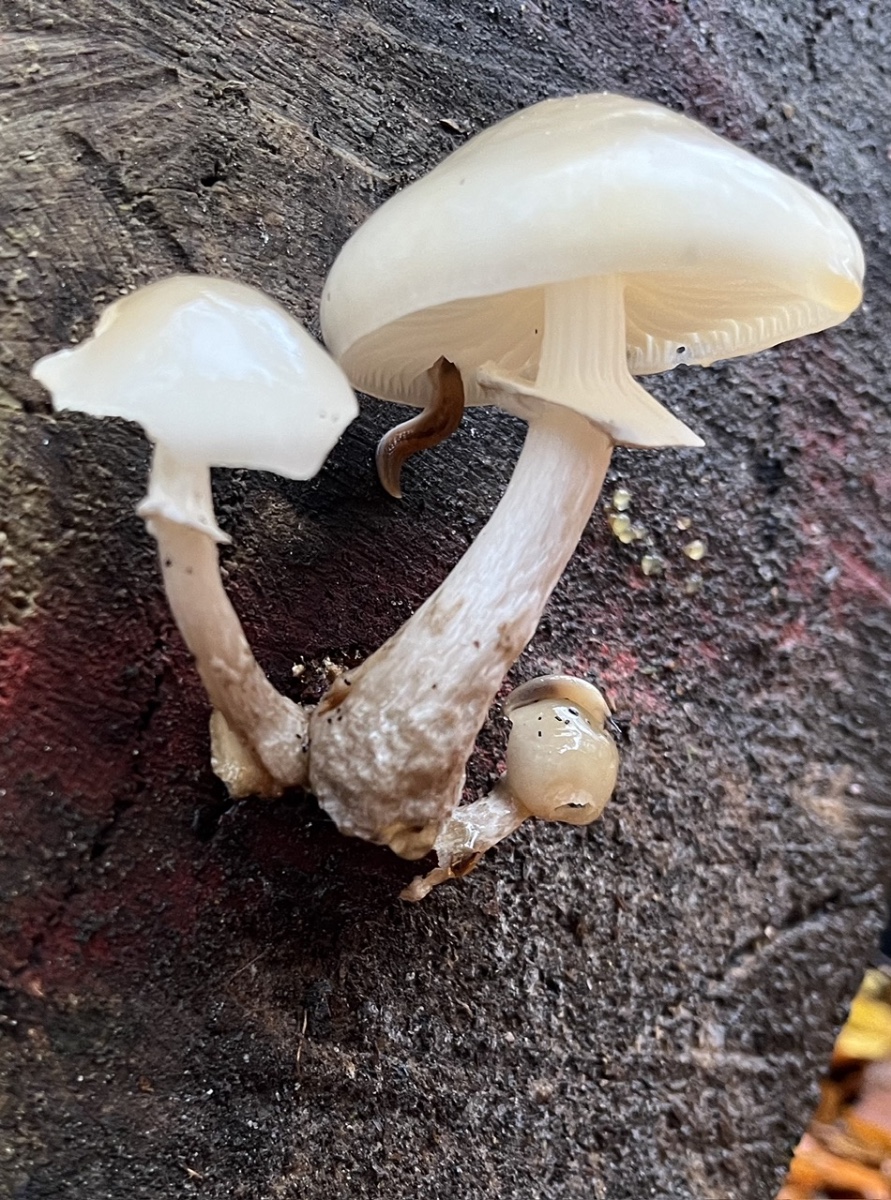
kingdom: Fungi
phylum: Basidiomycota
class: Agaricomycetes
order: Agaricales
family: Physalacriaceae
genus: Mucidula
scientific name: Mucidula mucida
